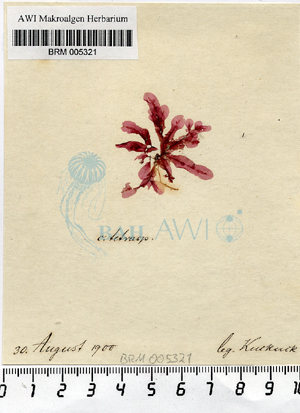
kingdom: Plantae
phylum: Rhodophyta
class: Florideophyceae
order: Ceramiales
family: Delesseriaceae
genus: Apoglossum
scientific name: Apoglossum ruscifolium
